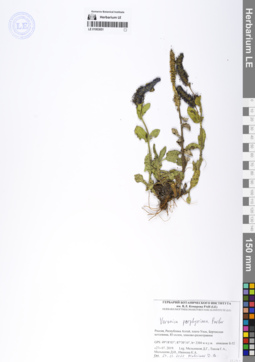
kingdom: Plantae
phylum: Tracheophyta
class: Magnoliopsida
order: Lamiales
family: Plantaginaceae
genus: Veronica
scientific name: Veronica porphyriana
